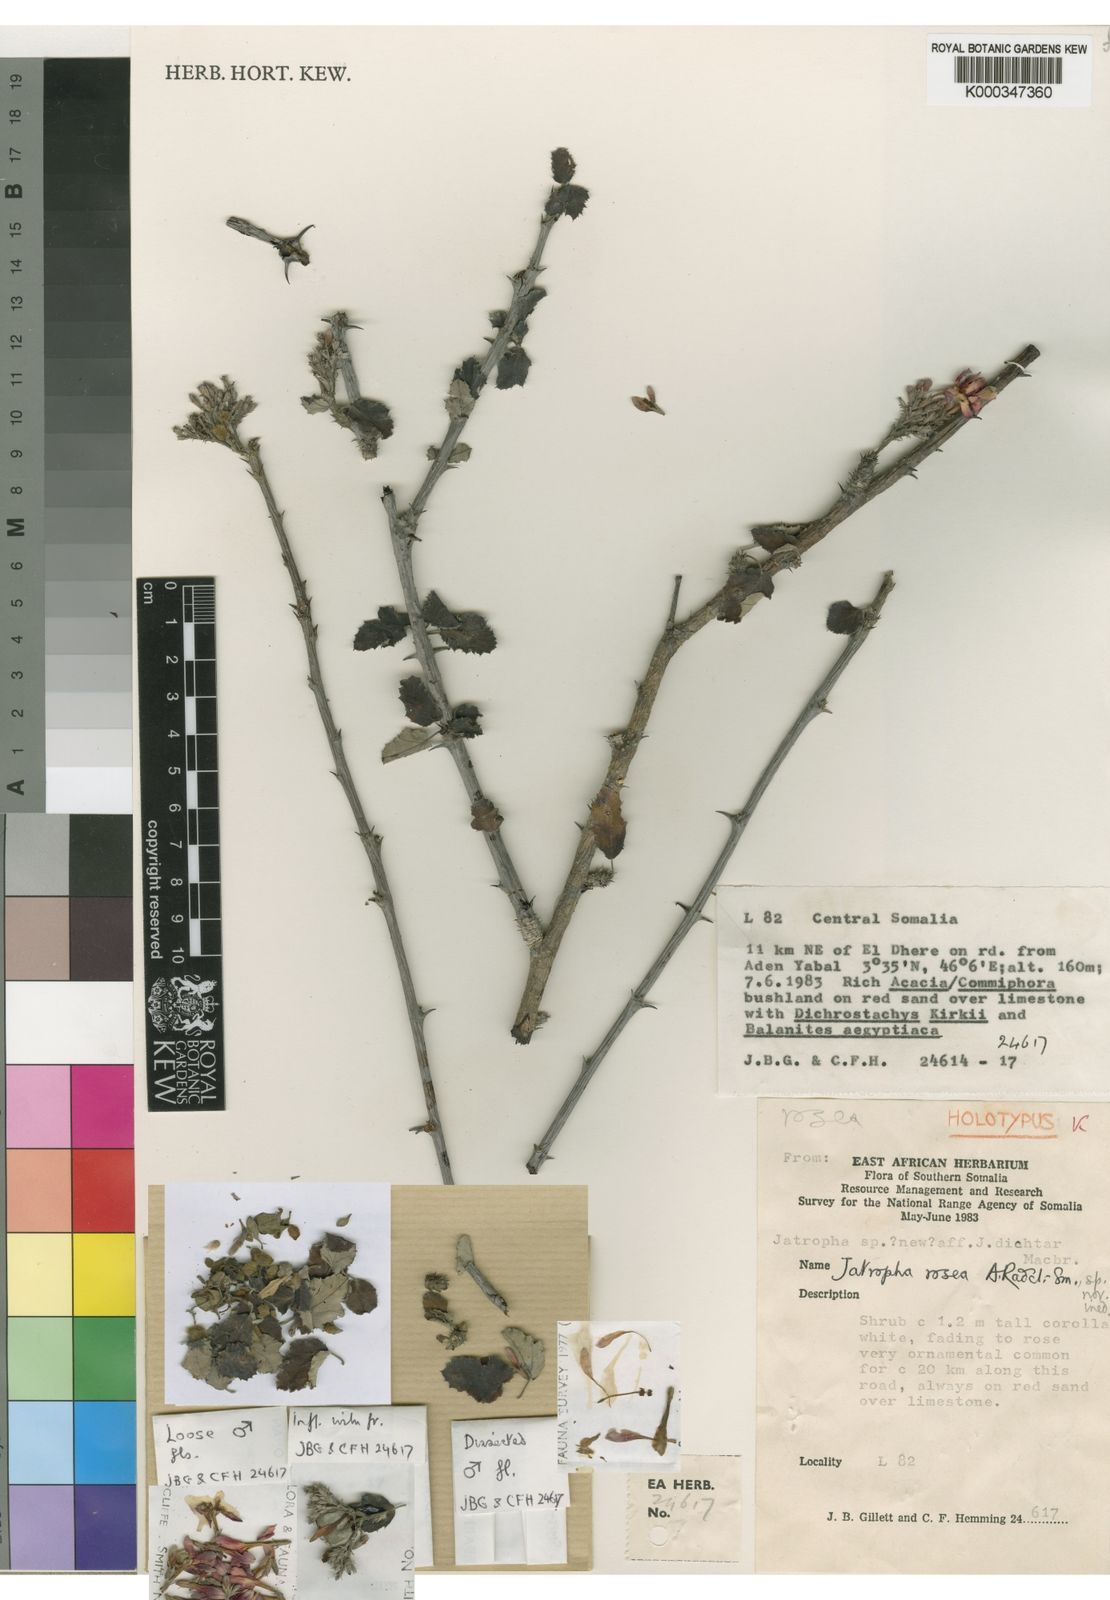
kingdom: Plantae
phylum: Tracheophyta
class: Magnoliopsida
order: Malpighiales
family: Euphorbiaceae
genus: Jatropha
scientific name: Jatropha rosea
